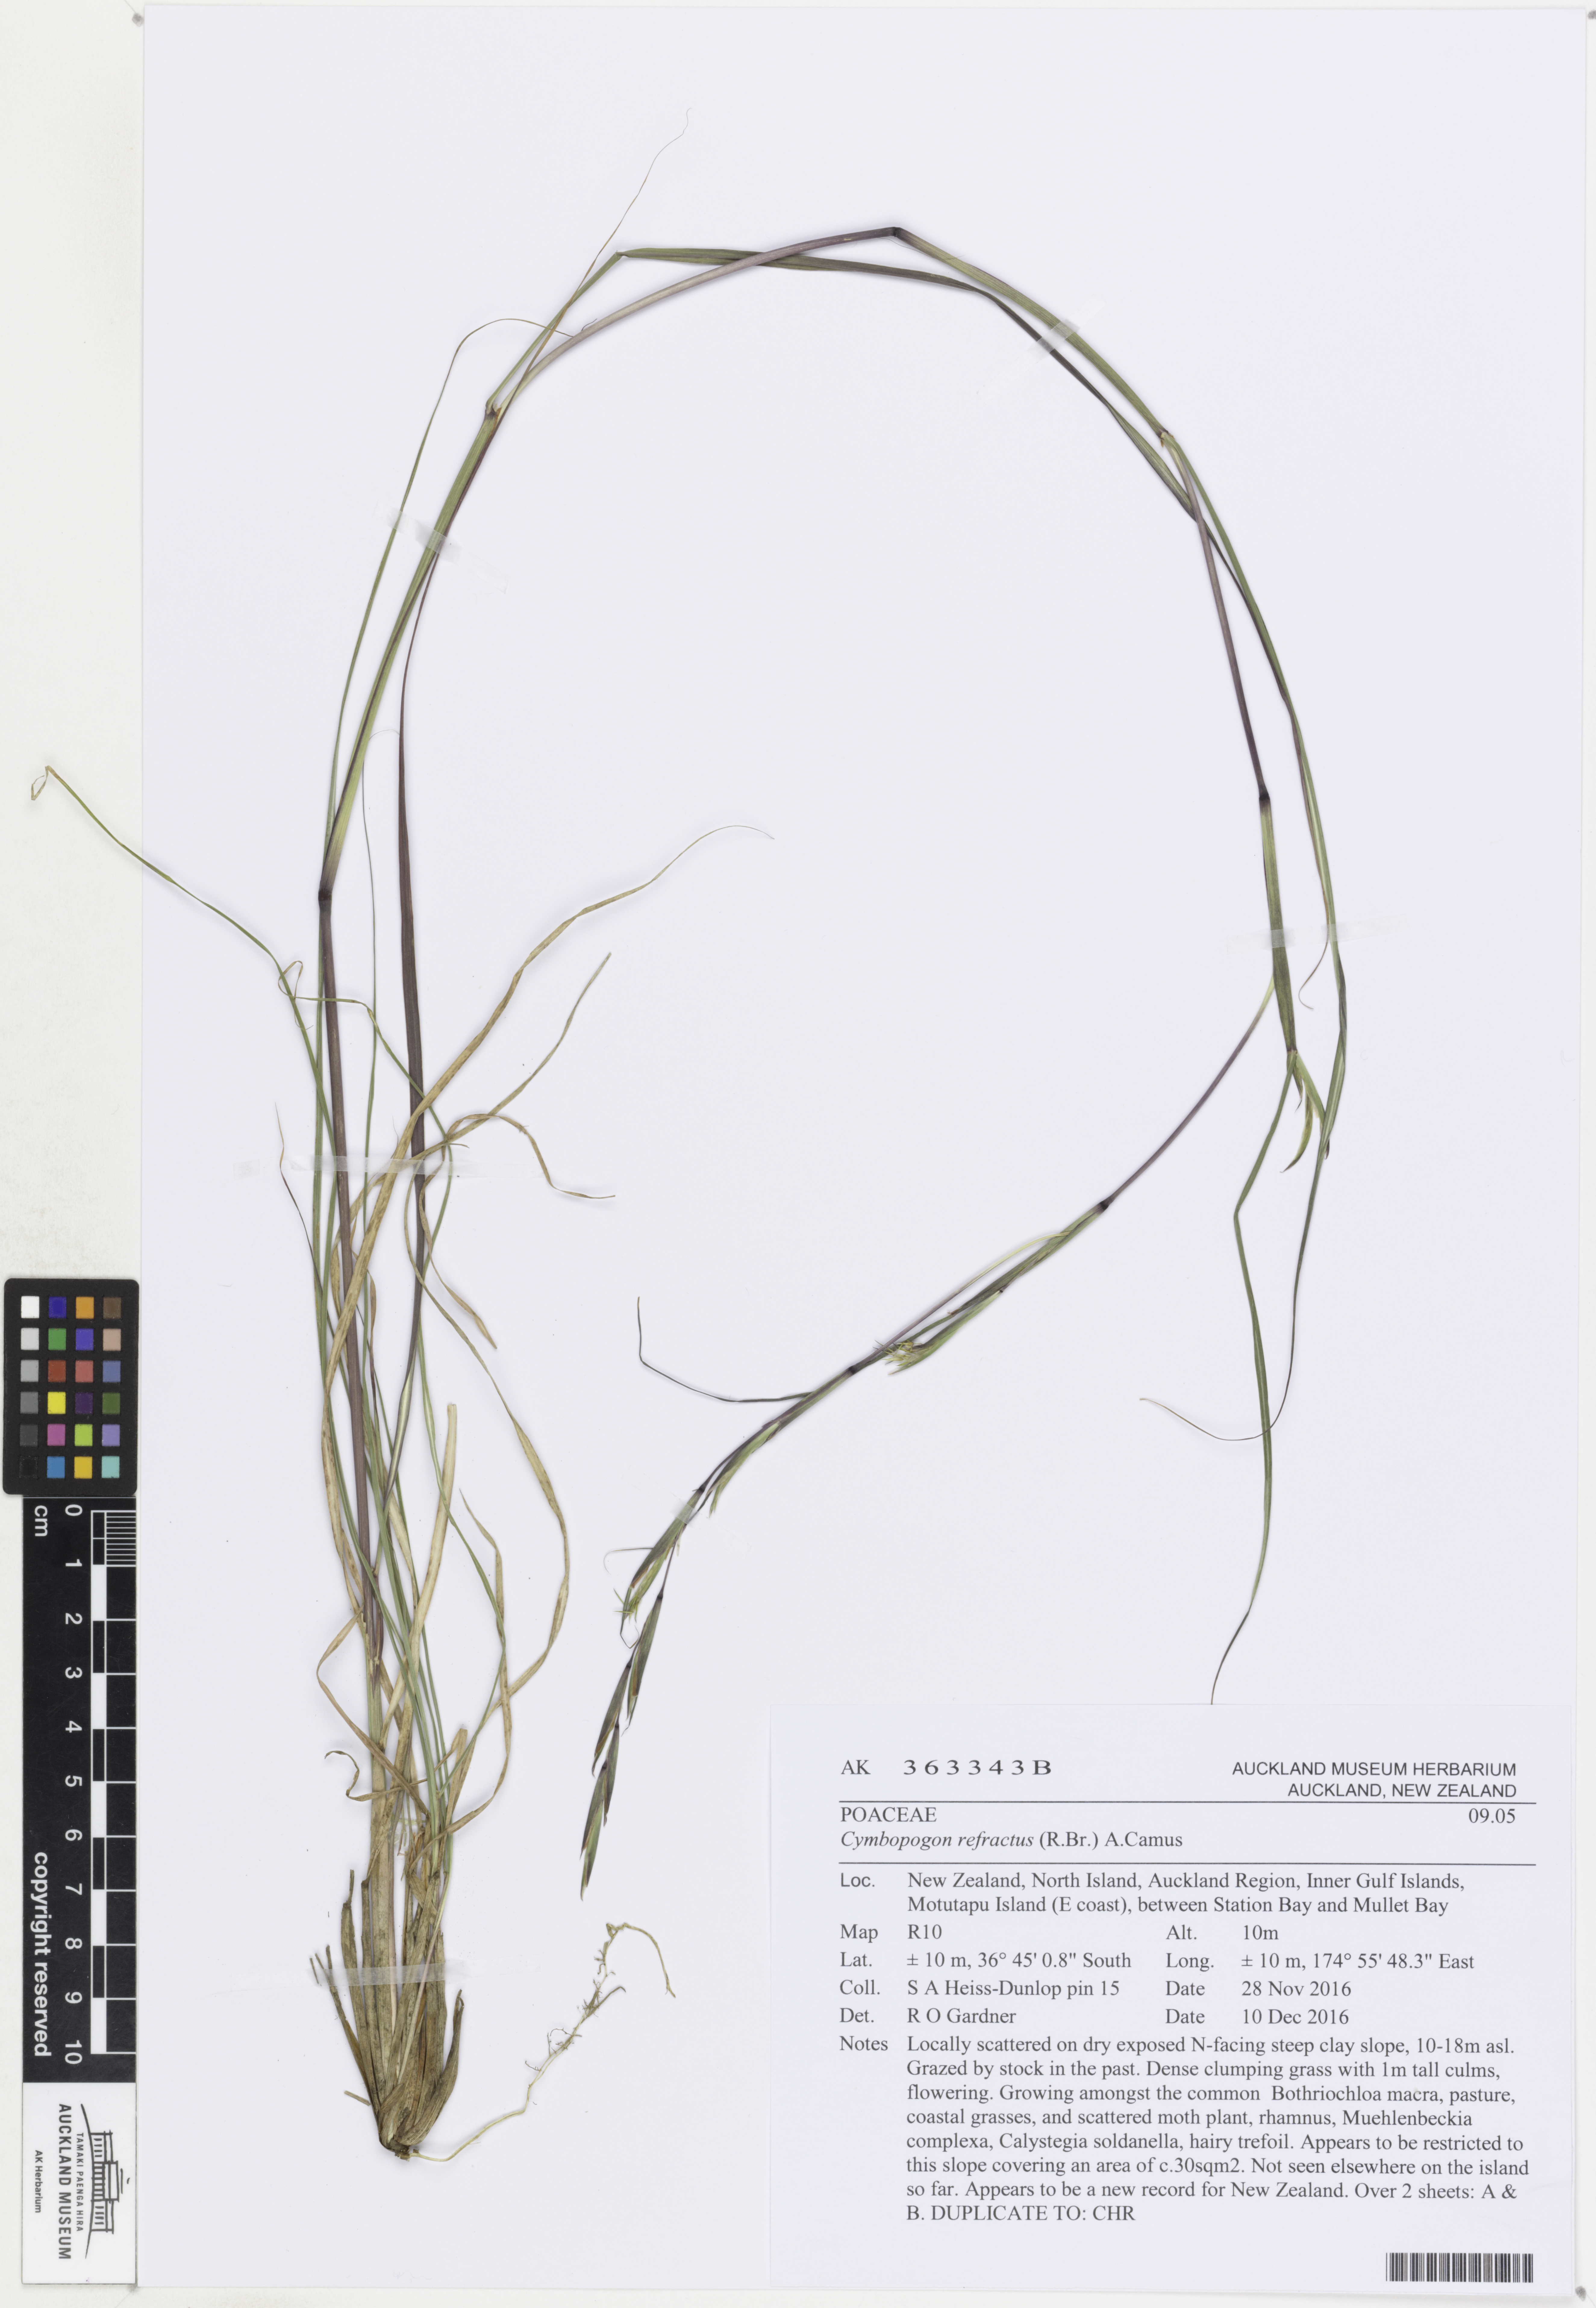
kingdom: Plantae
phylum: Tracheophyta
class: Liliopsida
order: Poales
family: Poaceae
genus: Cymbopogon
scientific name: Cymbopogon refractus
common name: Barbwire grass
